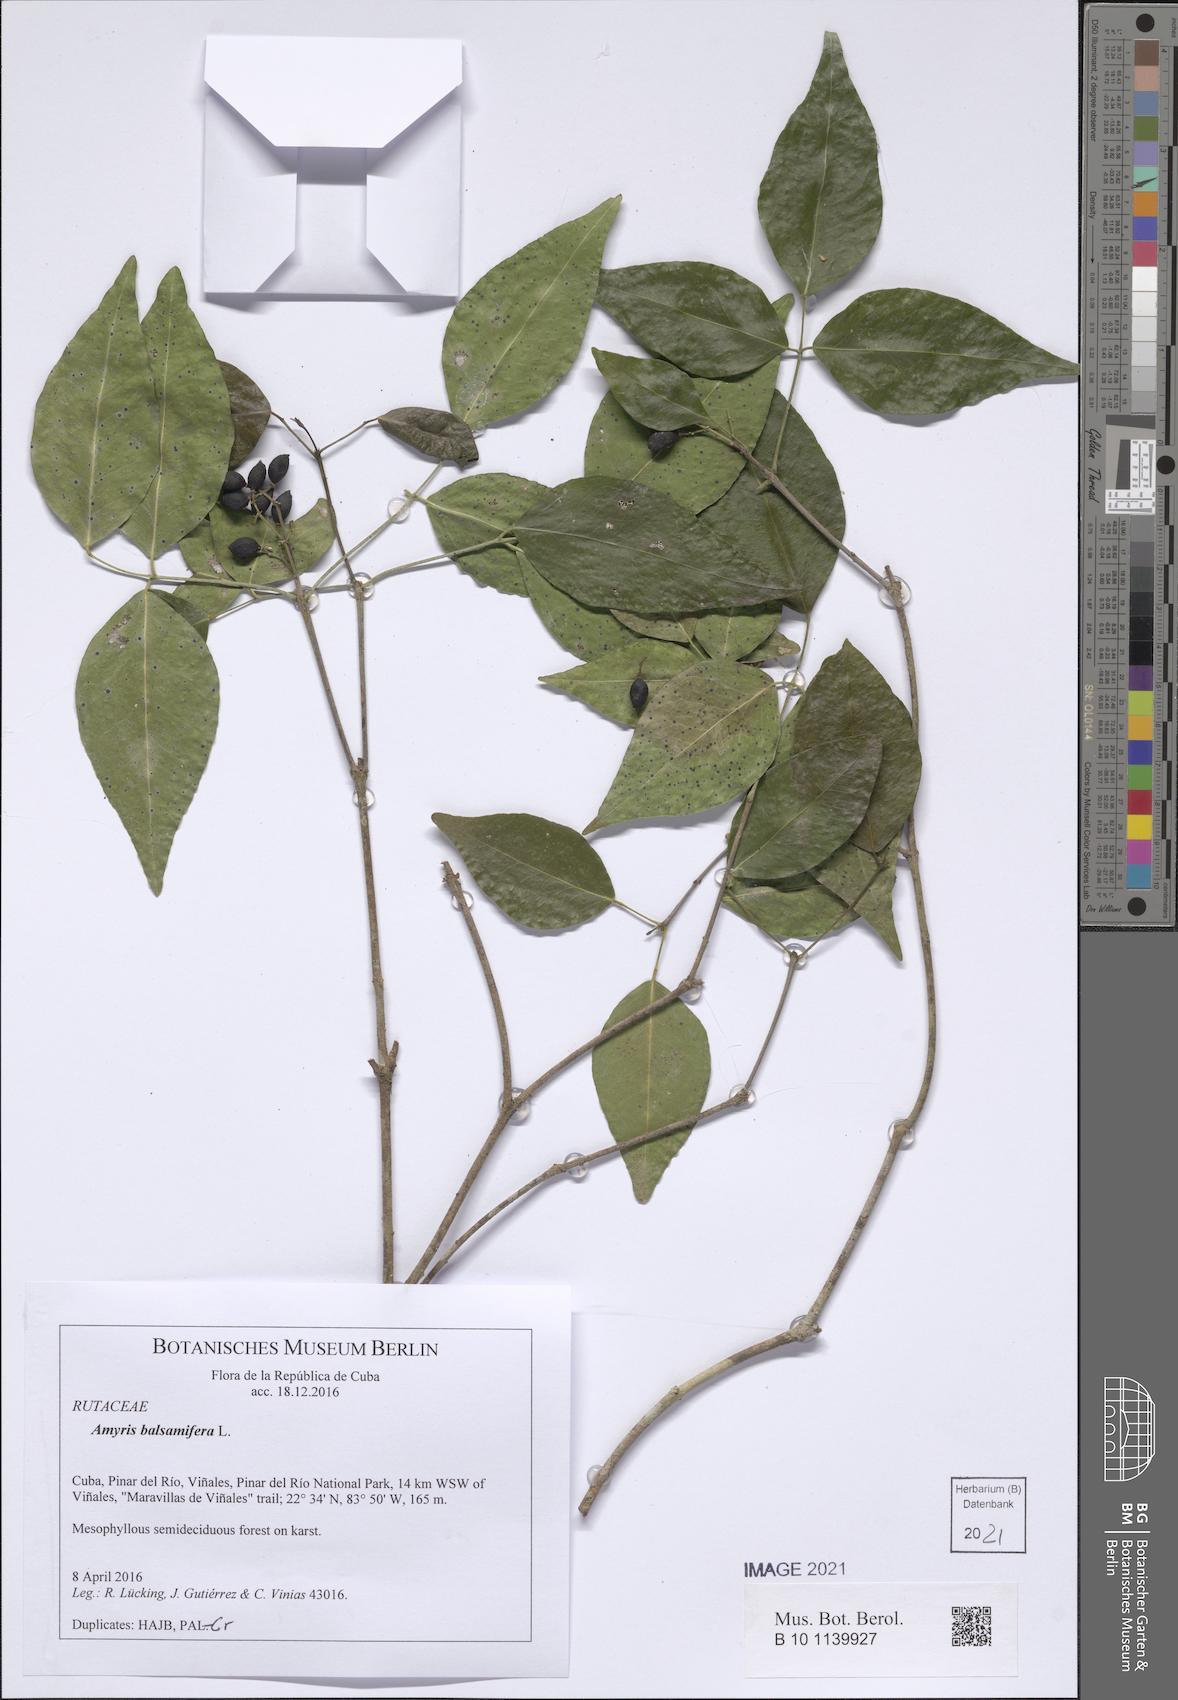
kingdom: Plantae
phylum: Tracheophyta
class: Magnoliopsida
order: Sapindales
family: Rutaceae
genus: Amyris
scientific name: Amyris balsamifera
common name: Balsam amyris
